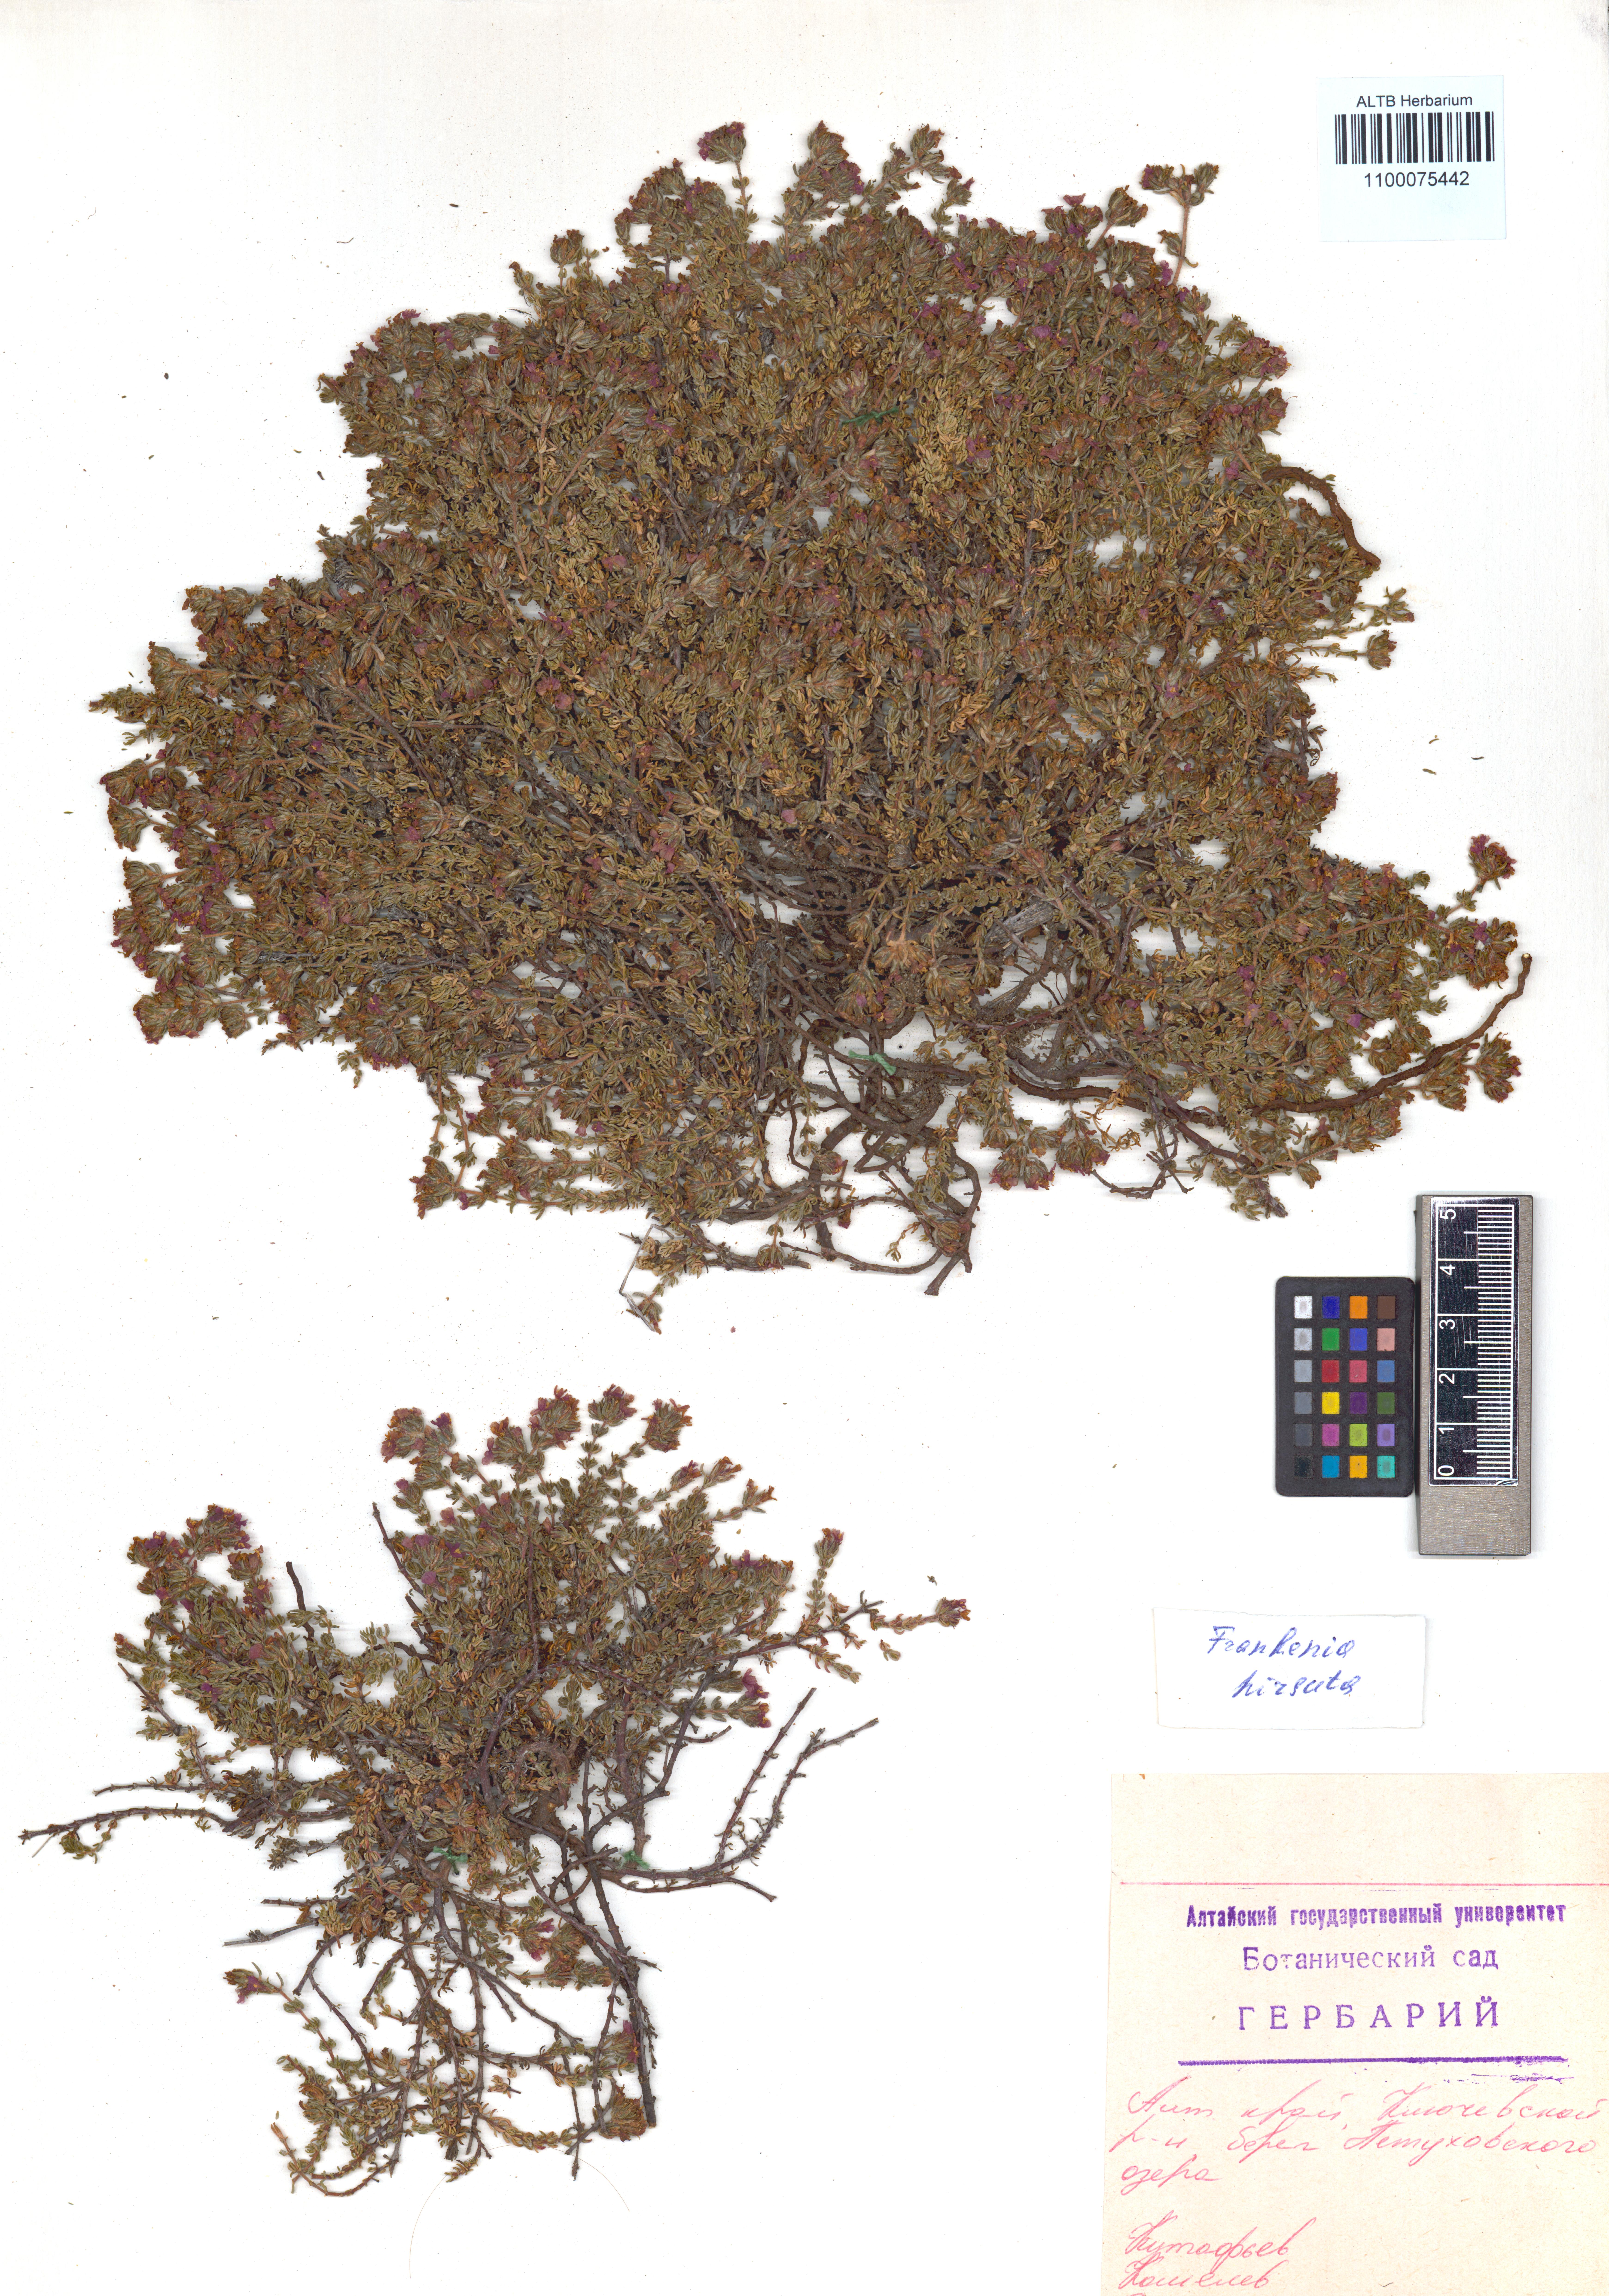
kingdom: Plantae
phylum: Tracheophyta
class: Magnoliopsida
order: Caryophyllales
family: Frankeniaceae
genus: Frankenia
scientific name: Frankenia hirsuta
